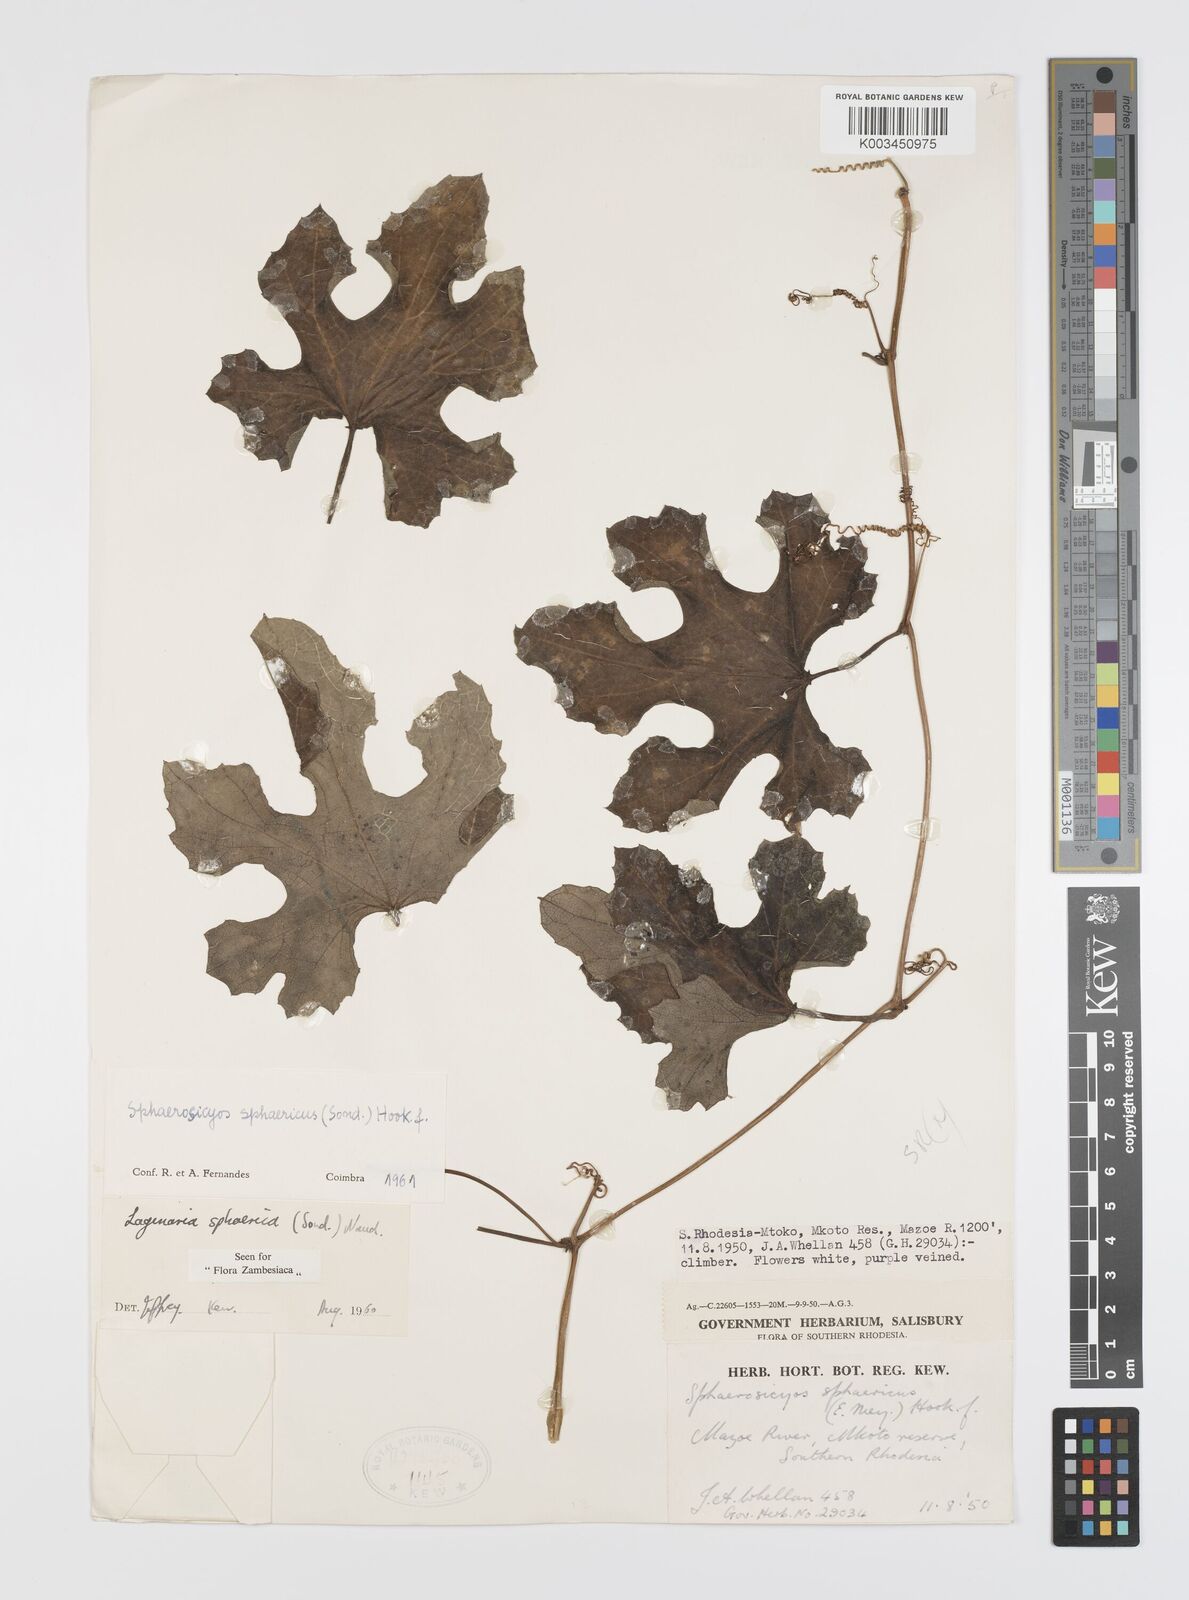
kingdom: Plantae
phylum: Tracheophyta
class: Magnoliopsida
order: Cucurbitales
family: Cucurbitaceae
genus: Lagenaria
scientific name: Lagenaria sphaerica
